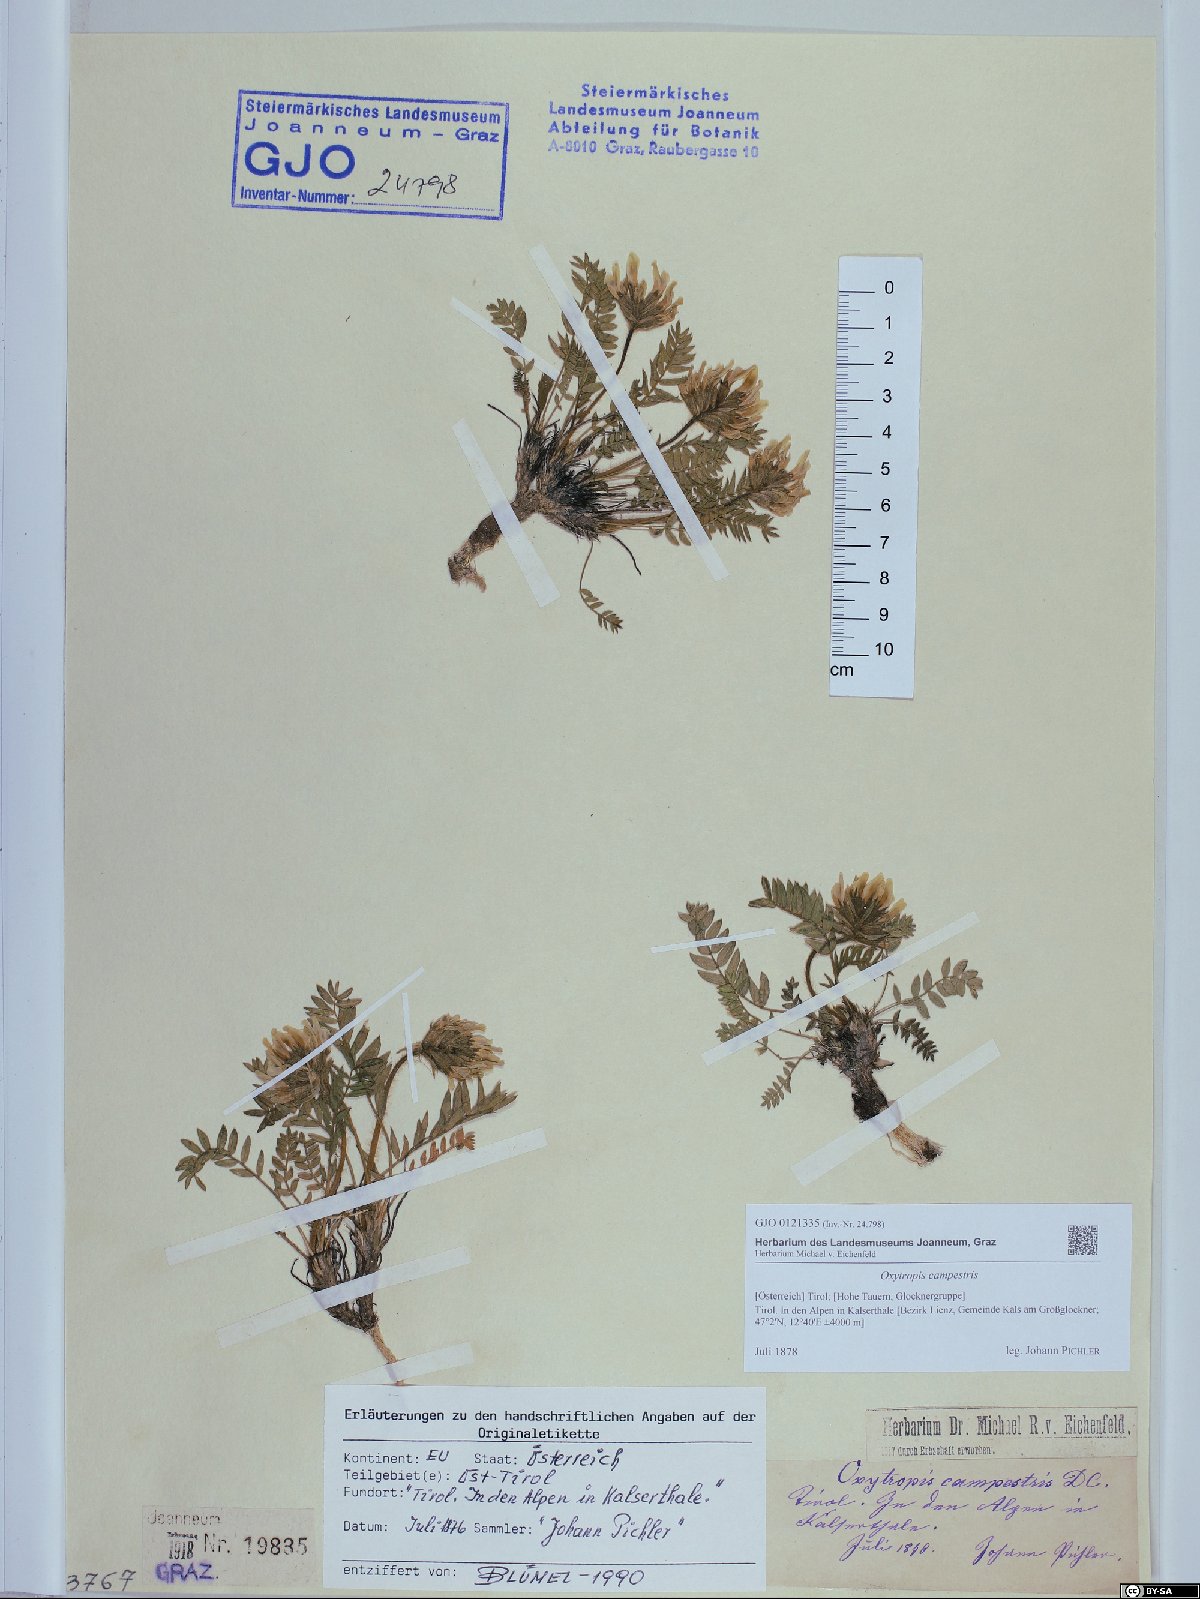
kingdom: Plantae
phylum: Tracheophyta
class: Magnoliopsida
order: Fabales
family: Fabaceae
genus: Oxytropis
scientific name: Oxytropis campestris
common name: Field locoweed
